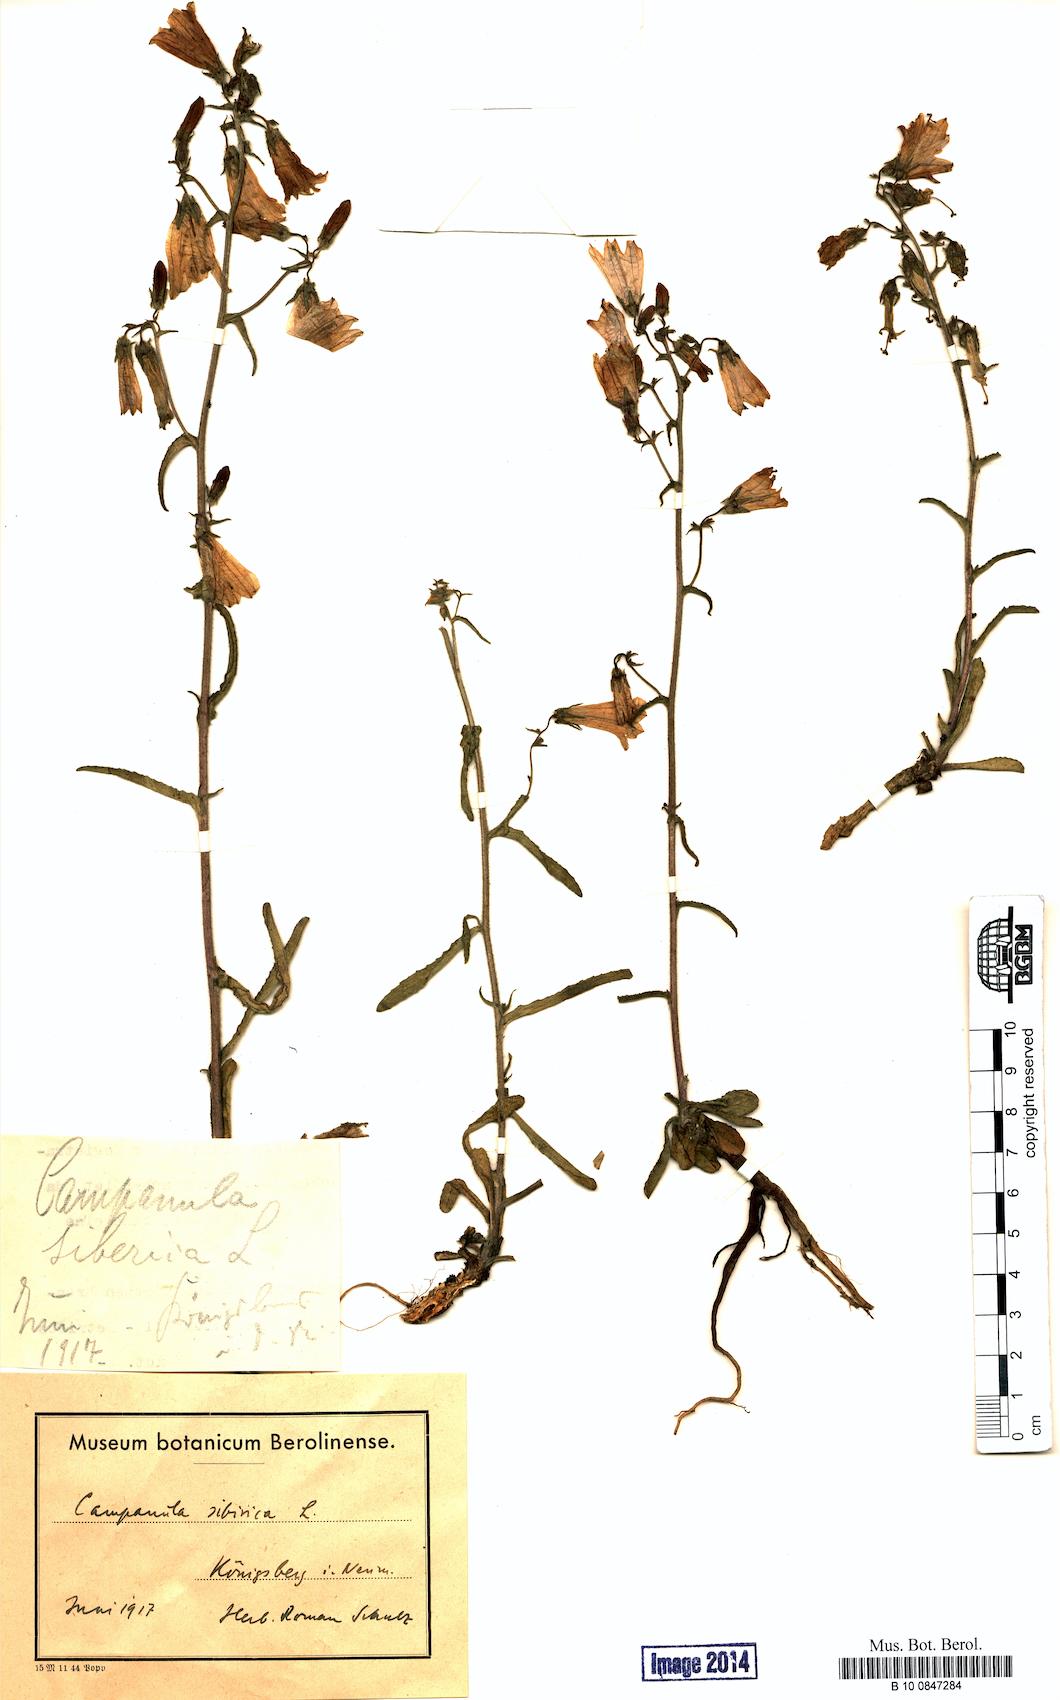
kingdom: Plantae
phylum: Tracheophyta
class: Magnoliopsida
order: Asterales
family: Campanulaceae
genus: Campanula
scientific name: Campanula sibirica
